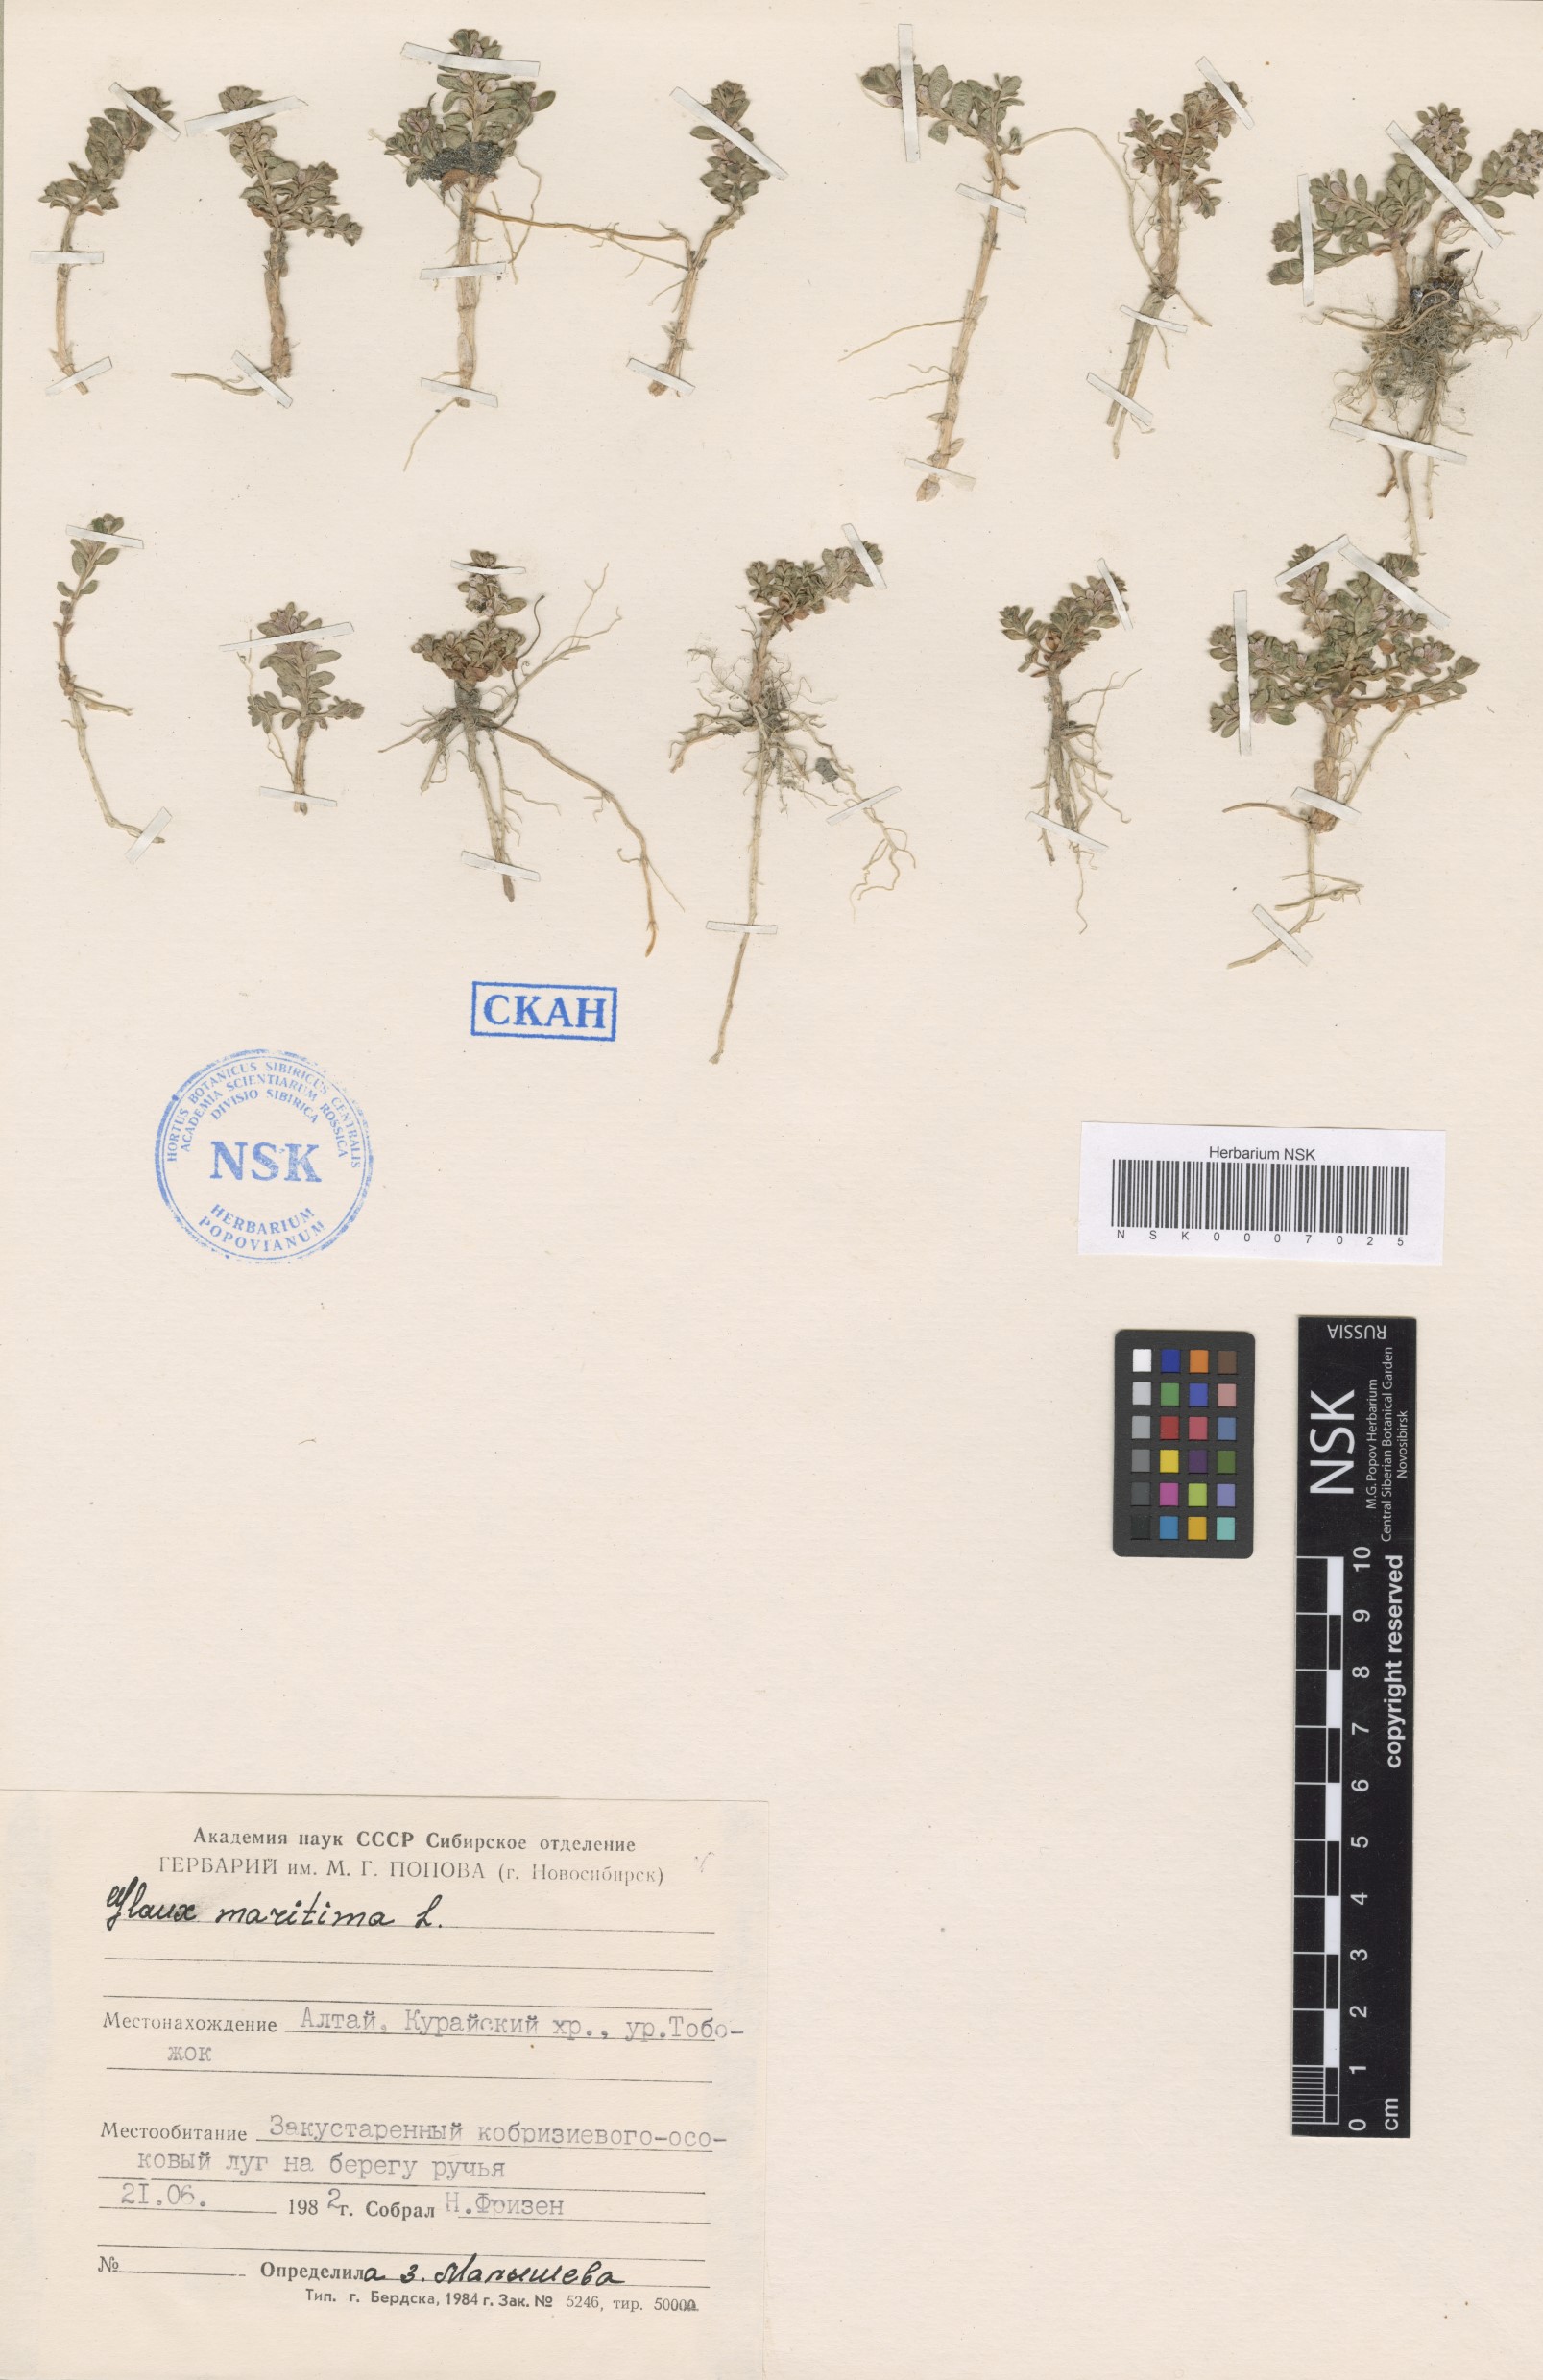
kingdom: Plantae
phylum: Tracheophyta
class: Magnoliopsida
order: Ericales
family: Primulaceae
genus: Lysimachia
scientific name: Lysimachia maritima
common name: Sea milkwort
